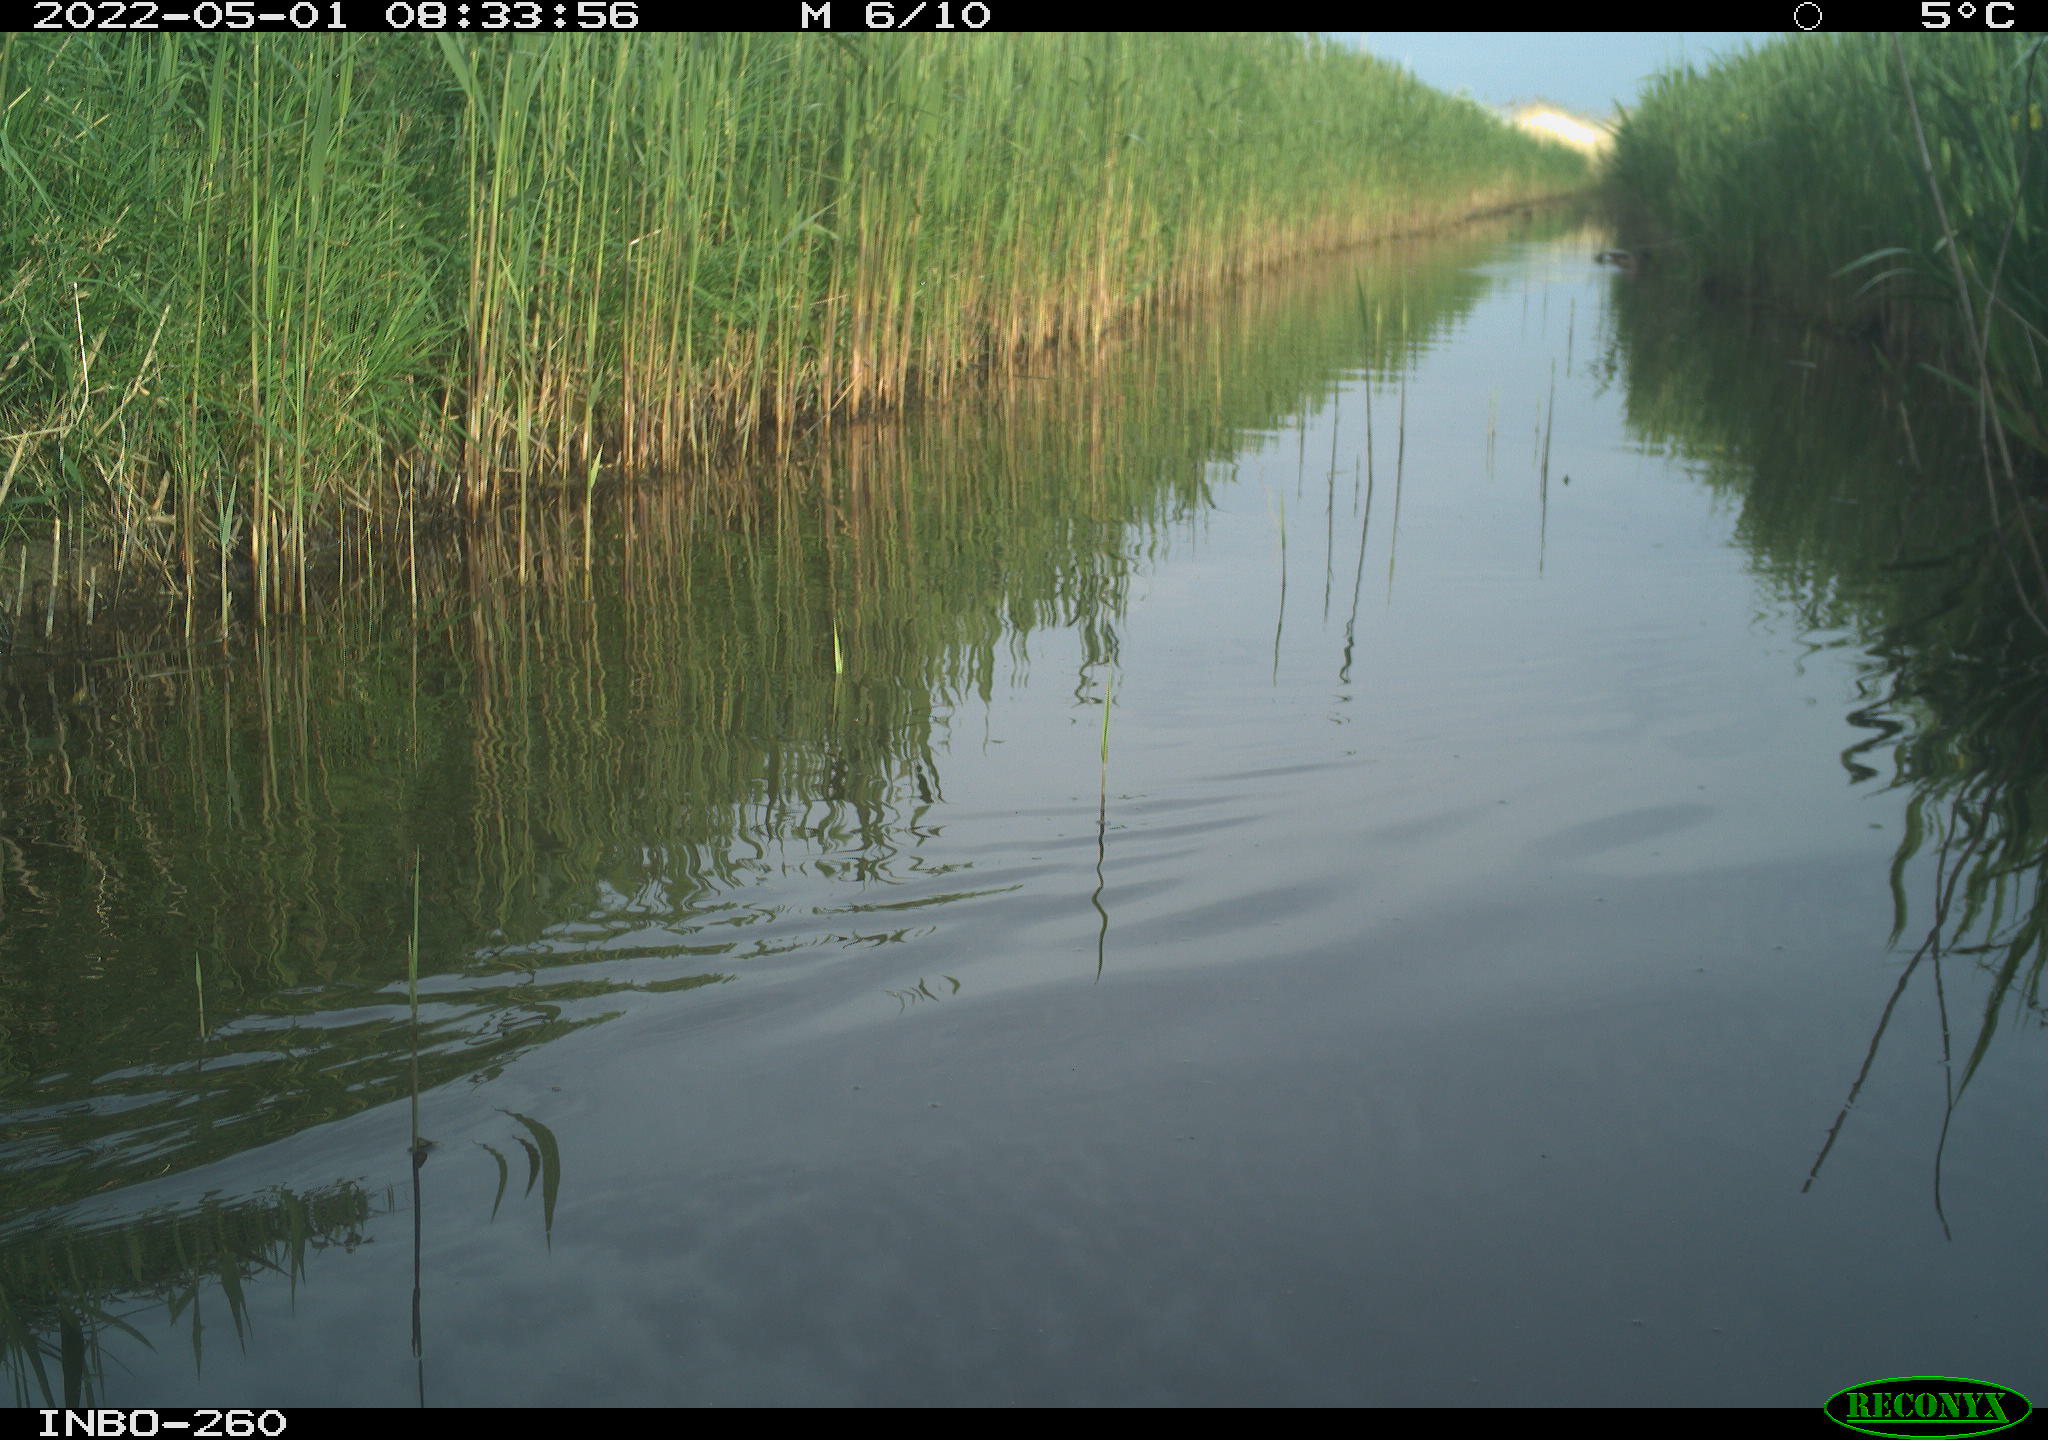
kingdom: Animalia
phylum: Chordata
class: Aves
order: Gruiformes
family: Rallidae
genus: Fulica
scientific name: Fulica atra
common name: Eurasian coot
